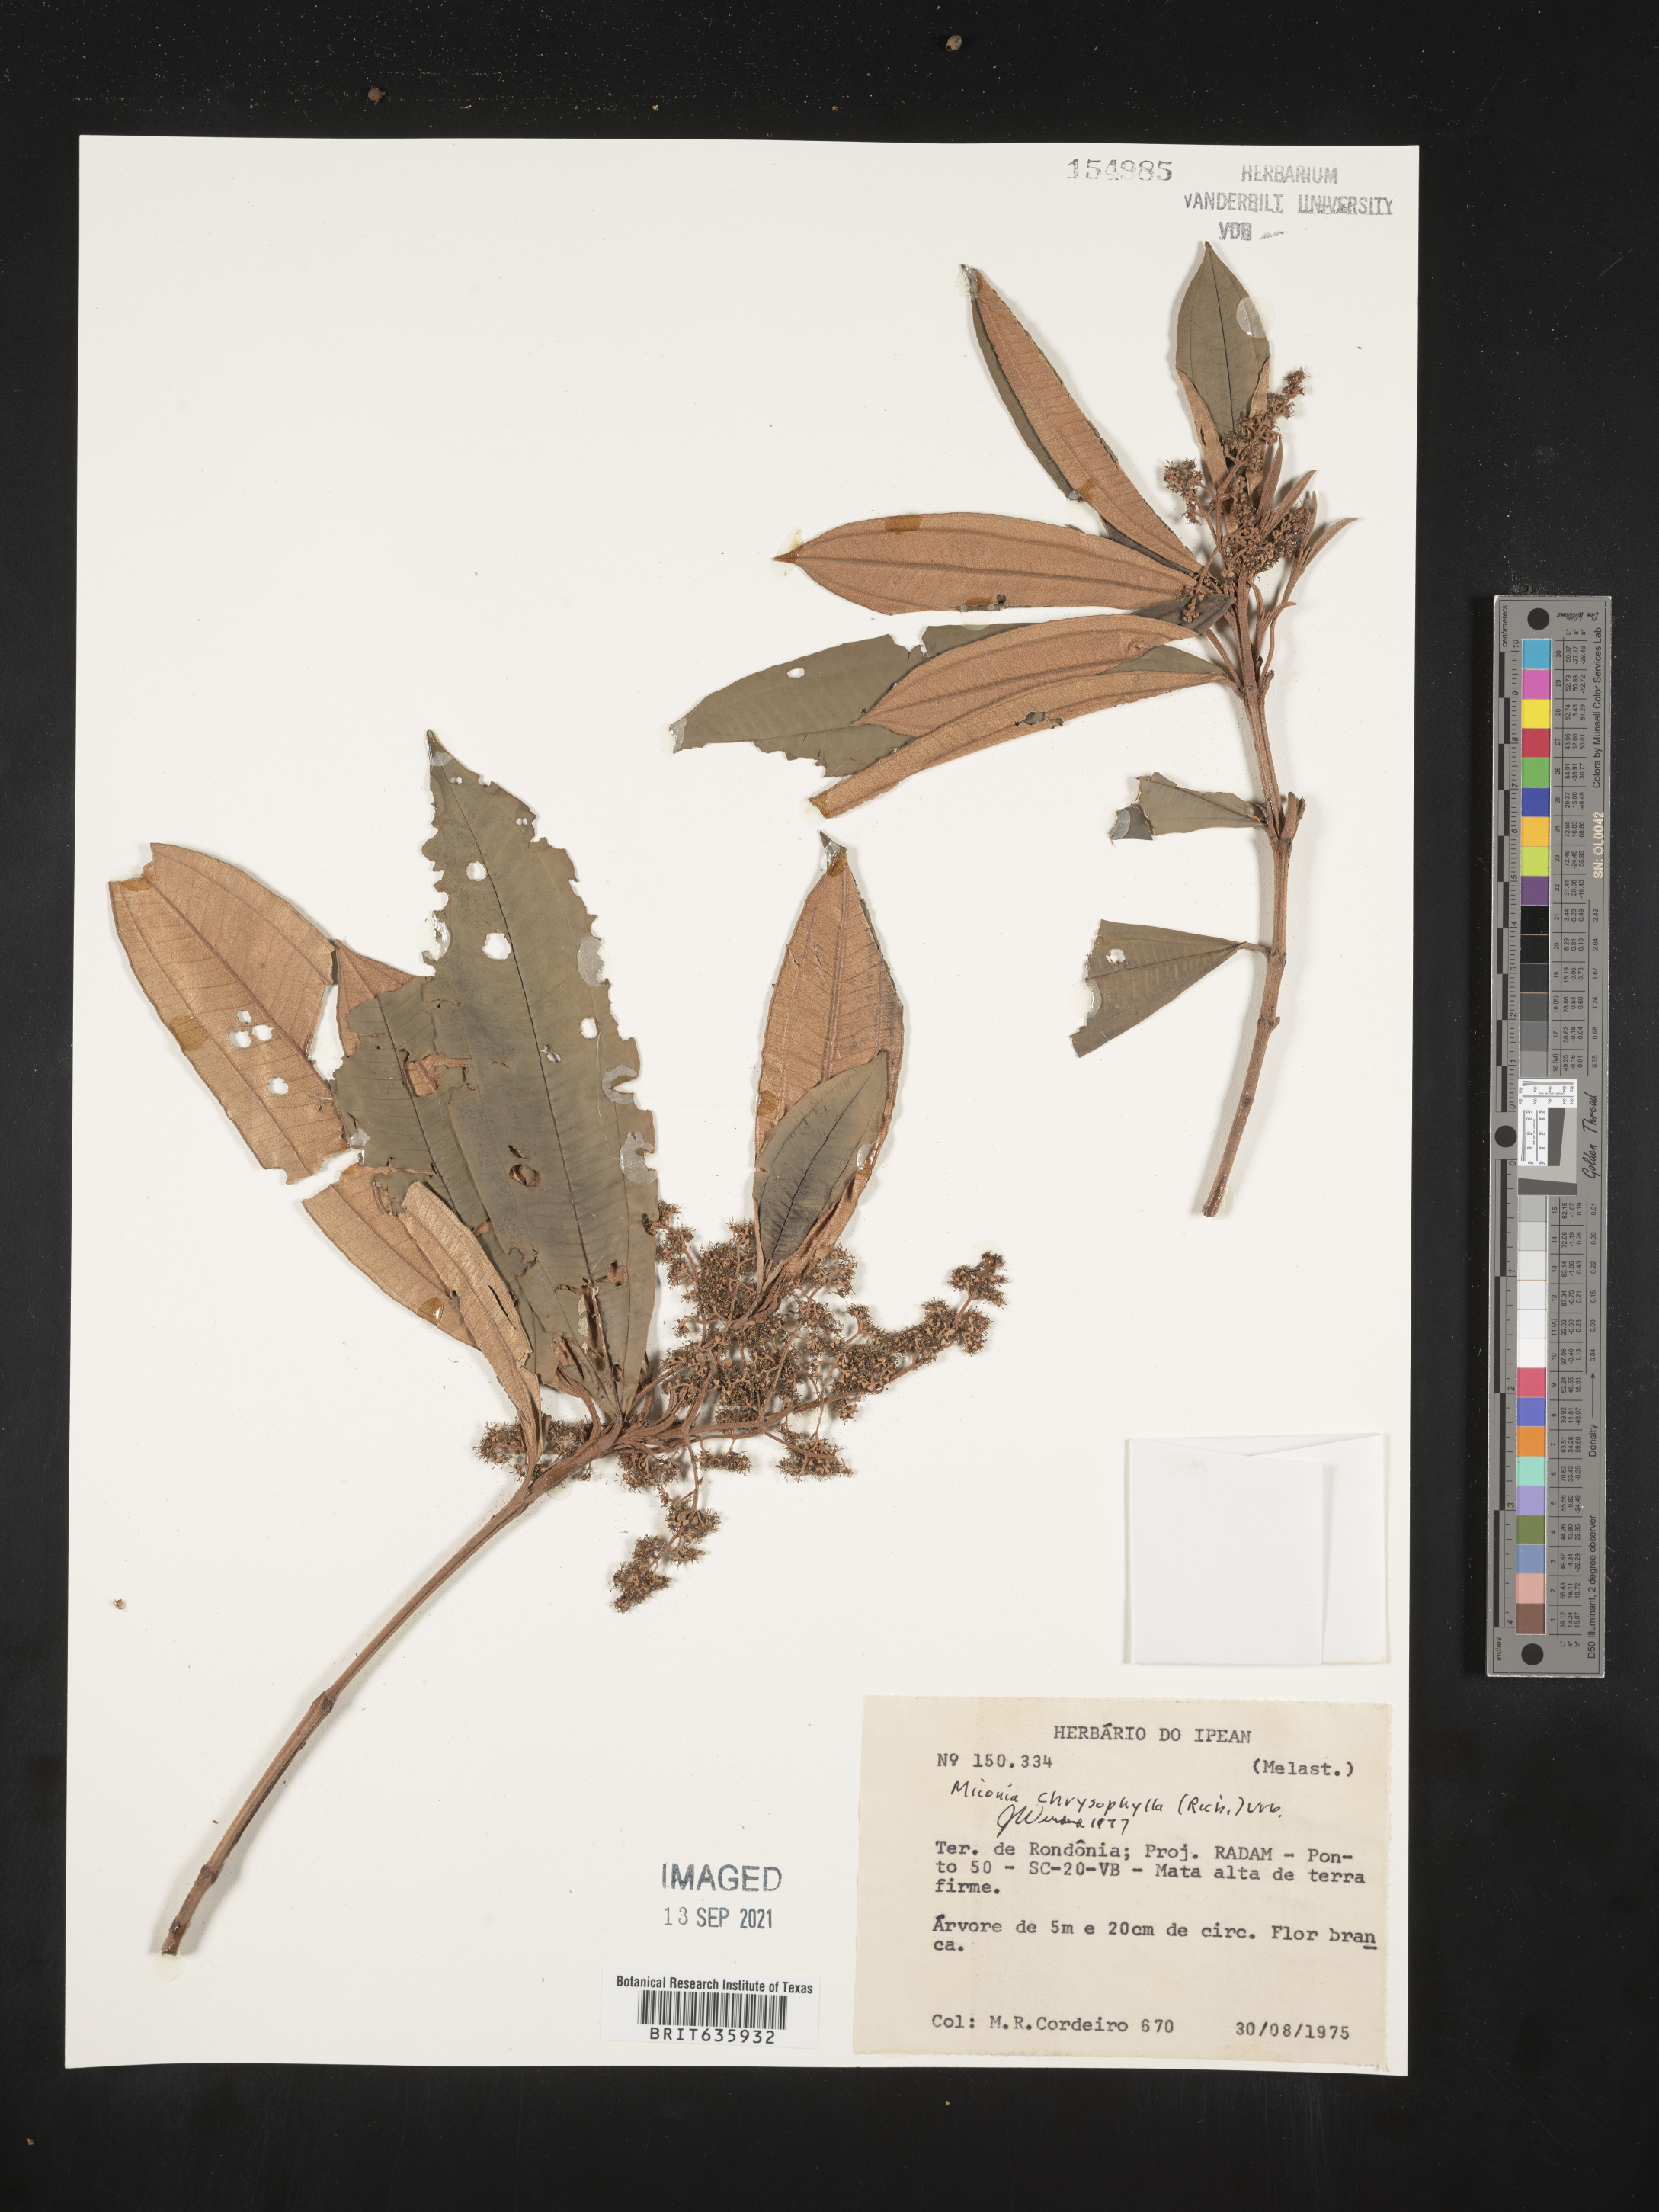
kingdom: Plantae
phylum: Tracheophyta
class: Magnoliopsida
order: Myrtales
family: Melastomataceae
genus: Miconia
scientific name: Miconia
